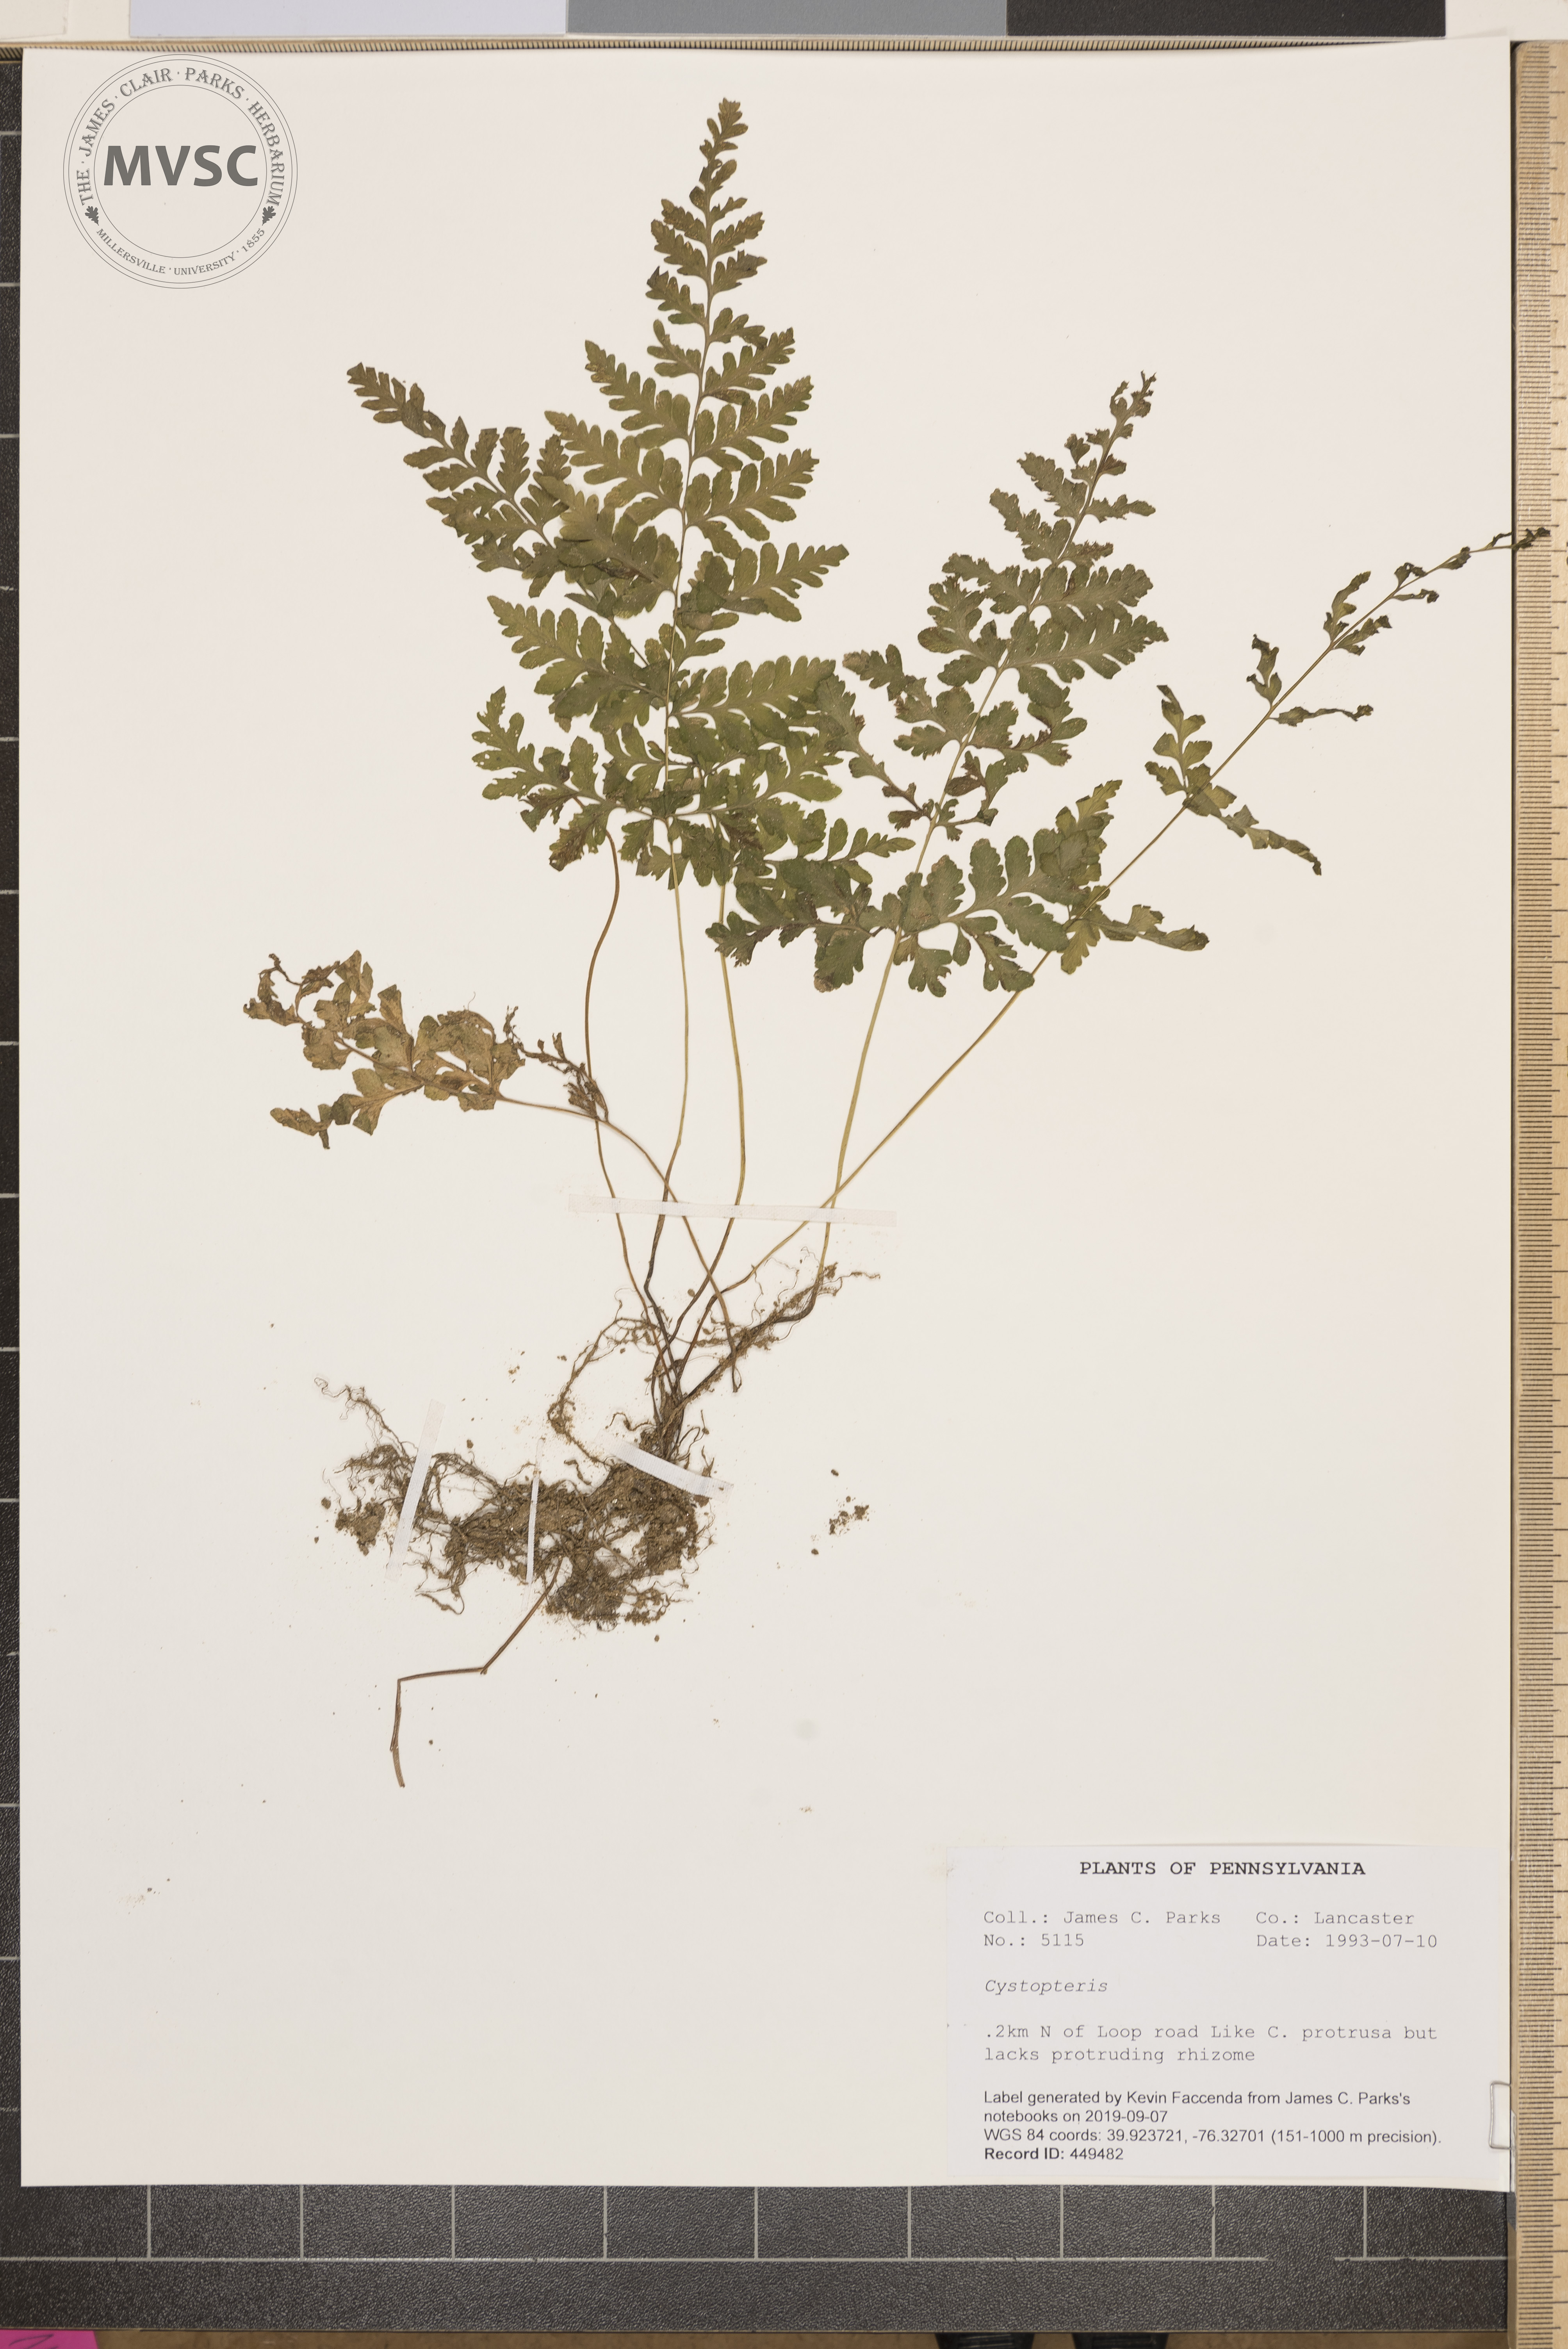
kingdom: Plantae
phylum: Tracheophyta
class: Polypodiopsida
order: Polypodiales
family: Cystopteridaceae
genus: Cystopteris
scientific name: Cystopteris
